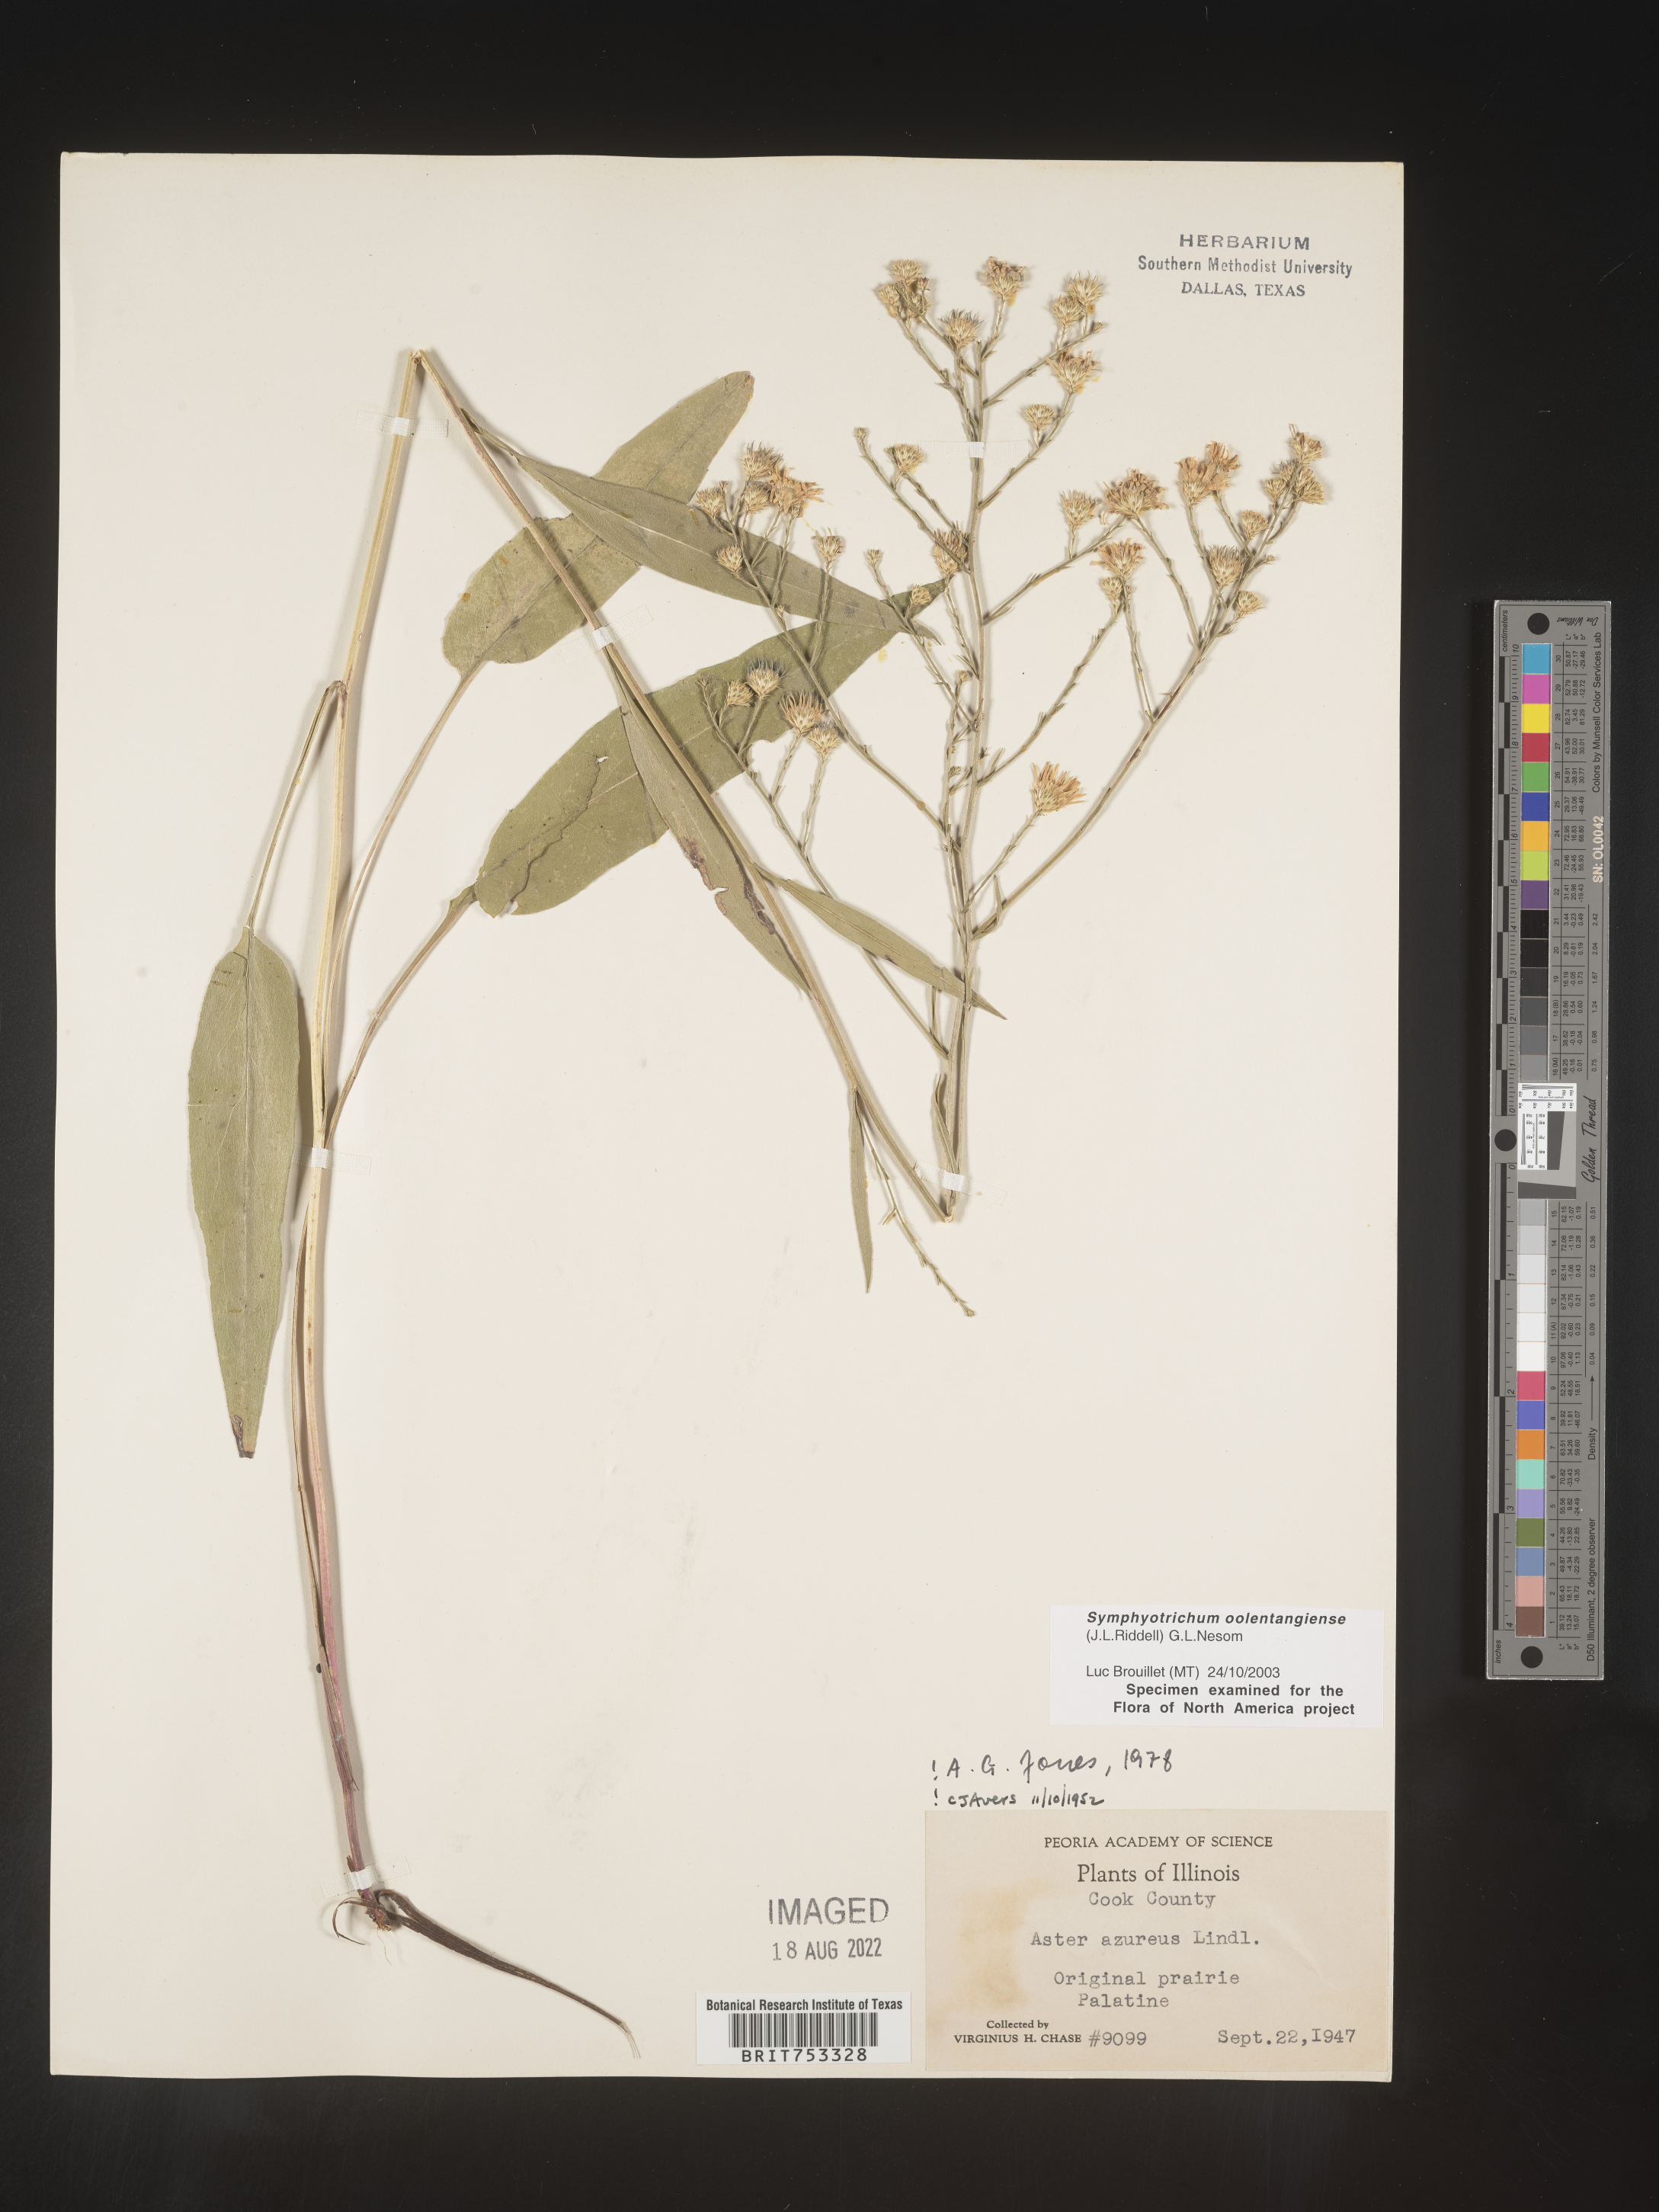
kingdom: Plantae
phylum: Tracheophyta
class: Magnoliopsida
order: Asterales
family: Asteraceae
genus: Symphyotrichum
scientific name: Symphyotrichum oolentangiense
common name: Azure aster
